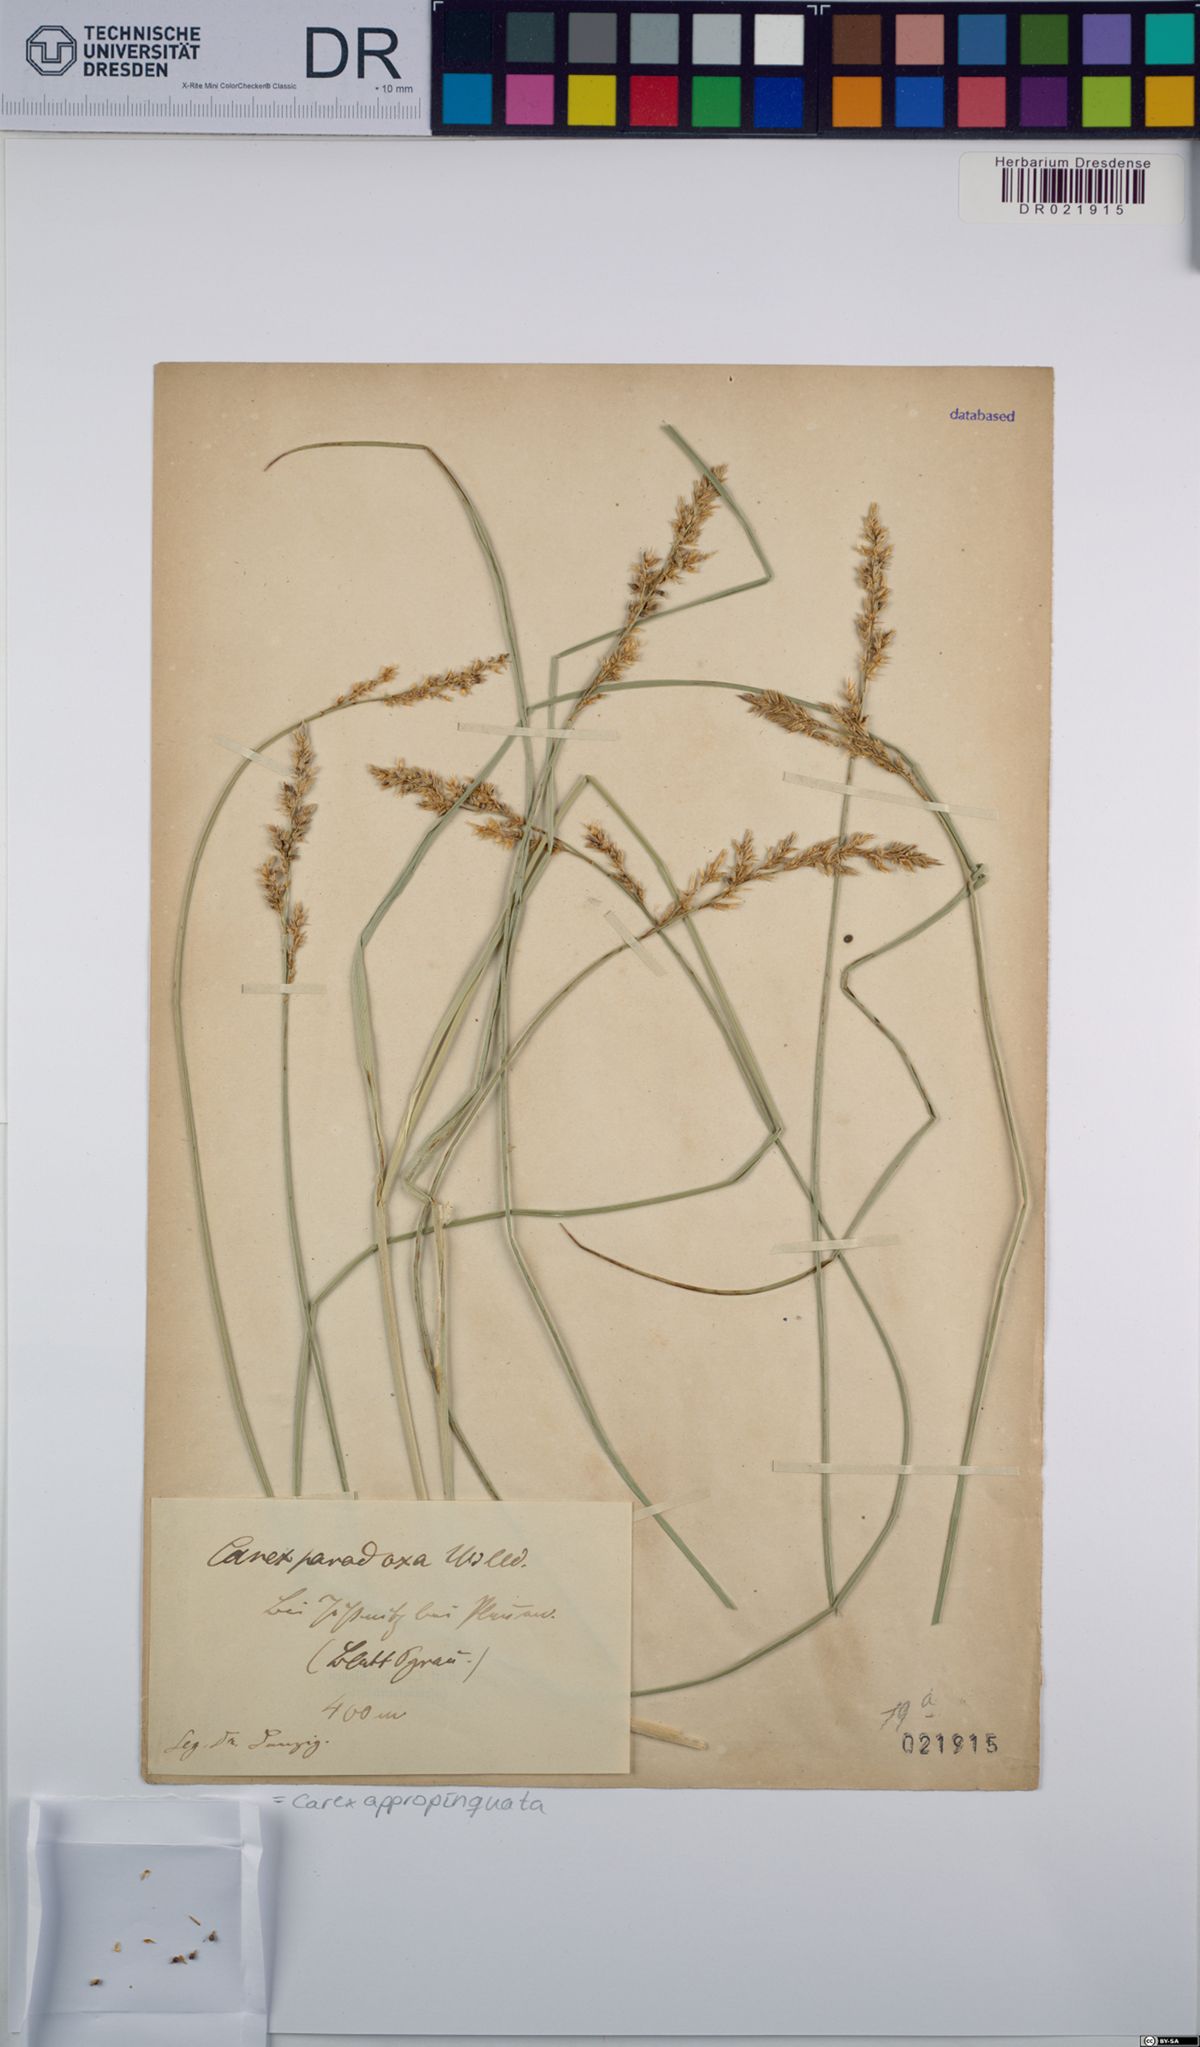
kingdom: Plantae
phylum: Tracheophyta
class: Liliopsida
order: Poales
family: Cyperaceae
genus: Carex
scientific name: Carex appropinquata
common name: Fibrous tussock-sedge
